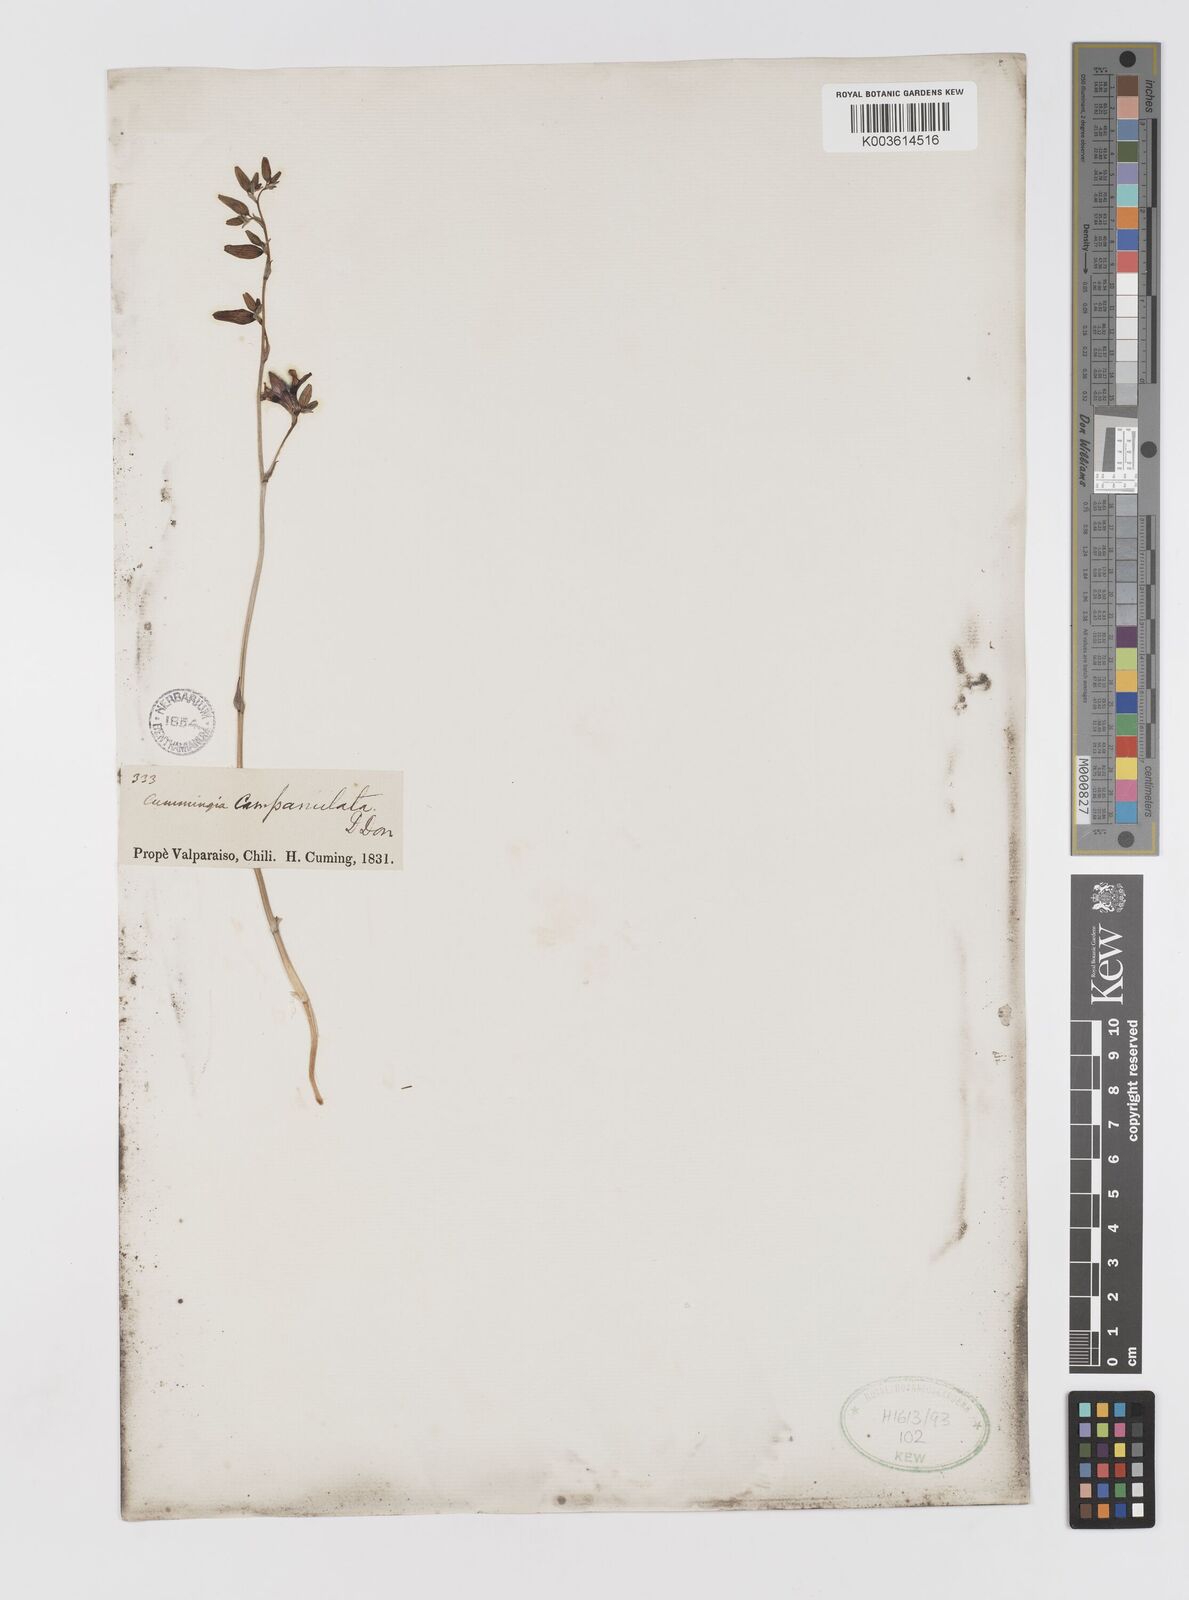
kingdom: Plantae
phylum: Tracheophyta
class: Liliopsida
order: Asparagales
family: Tecophilaeaceae
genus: Conanthera
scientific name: Conanthera campanulata
